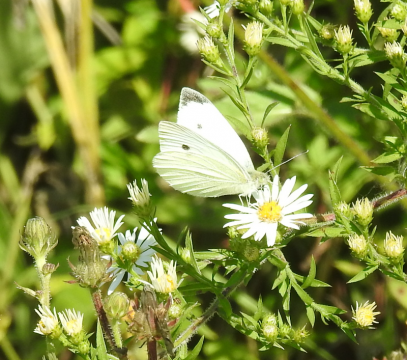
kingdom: Animalia
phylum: Arthropoda
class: Insecta
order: Lepidoptera
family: Pieridae
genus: Pieris
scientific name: Pieris rapae
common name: Cabbage White
